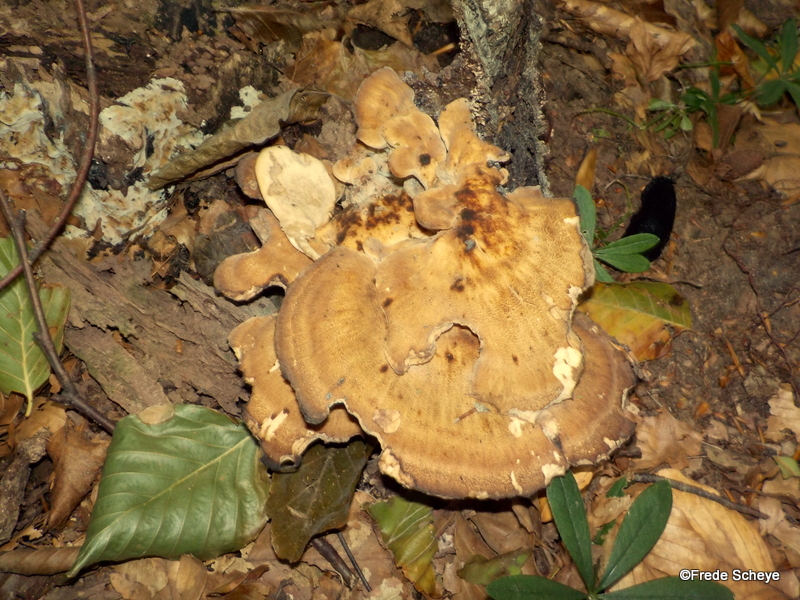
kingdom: Fungi
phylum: Basidiomycota
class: Agaricomycetes
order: Polyporales
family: Meripilaceae
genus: Meripilus
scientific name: Meripilus giganteus
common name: kæmpeporesvamp
